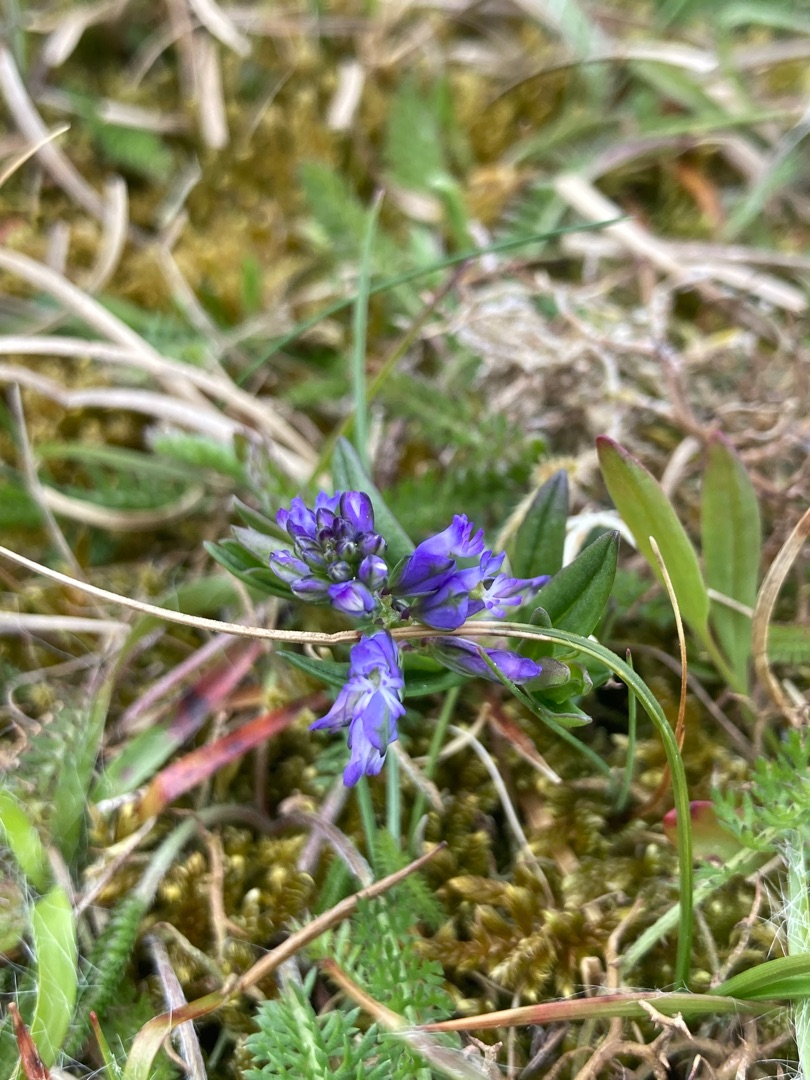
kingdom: Plantae
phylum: Tracheophyta
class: Magnoliopsida
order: Fabales
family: Polygalaceae
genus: Polygala
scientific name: Polygala vulgaris
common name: Almindelig mælkeurt
